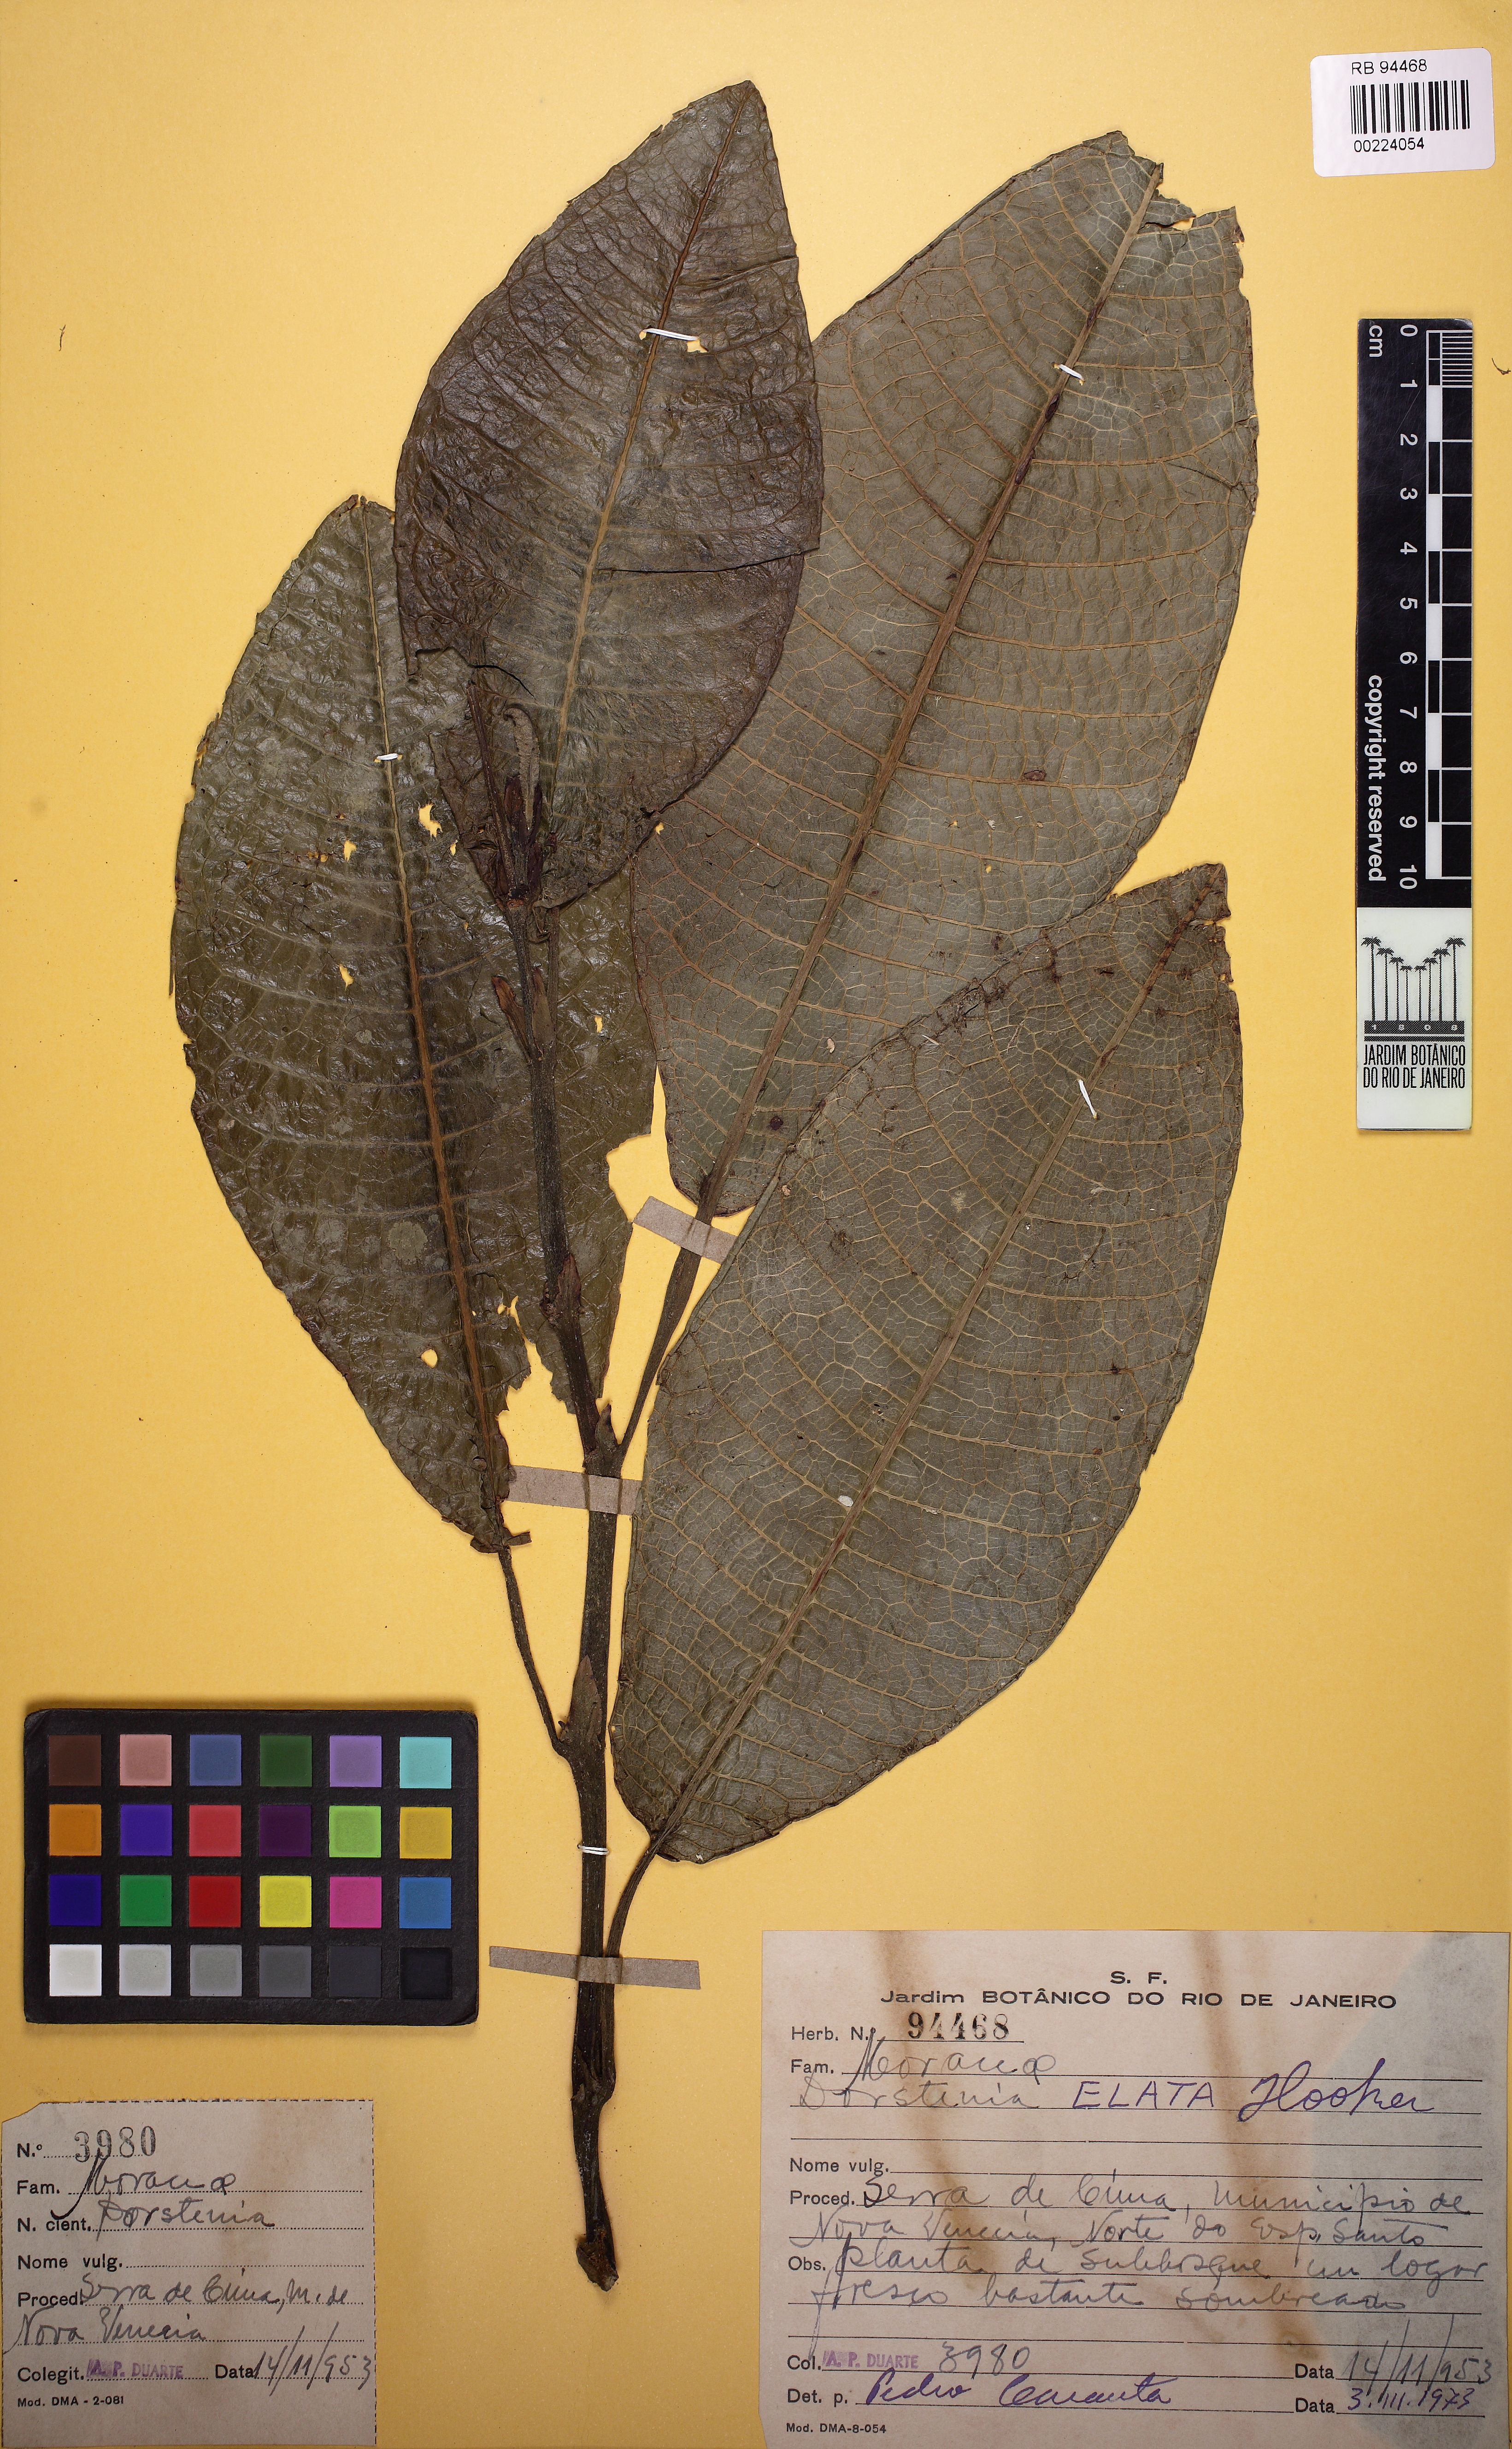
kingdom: Plantae
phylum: Tracheophyta
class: Magnoliopsida
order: Rosales
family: Moraceae
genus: Dorstenia
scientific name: Dorstenia elata
